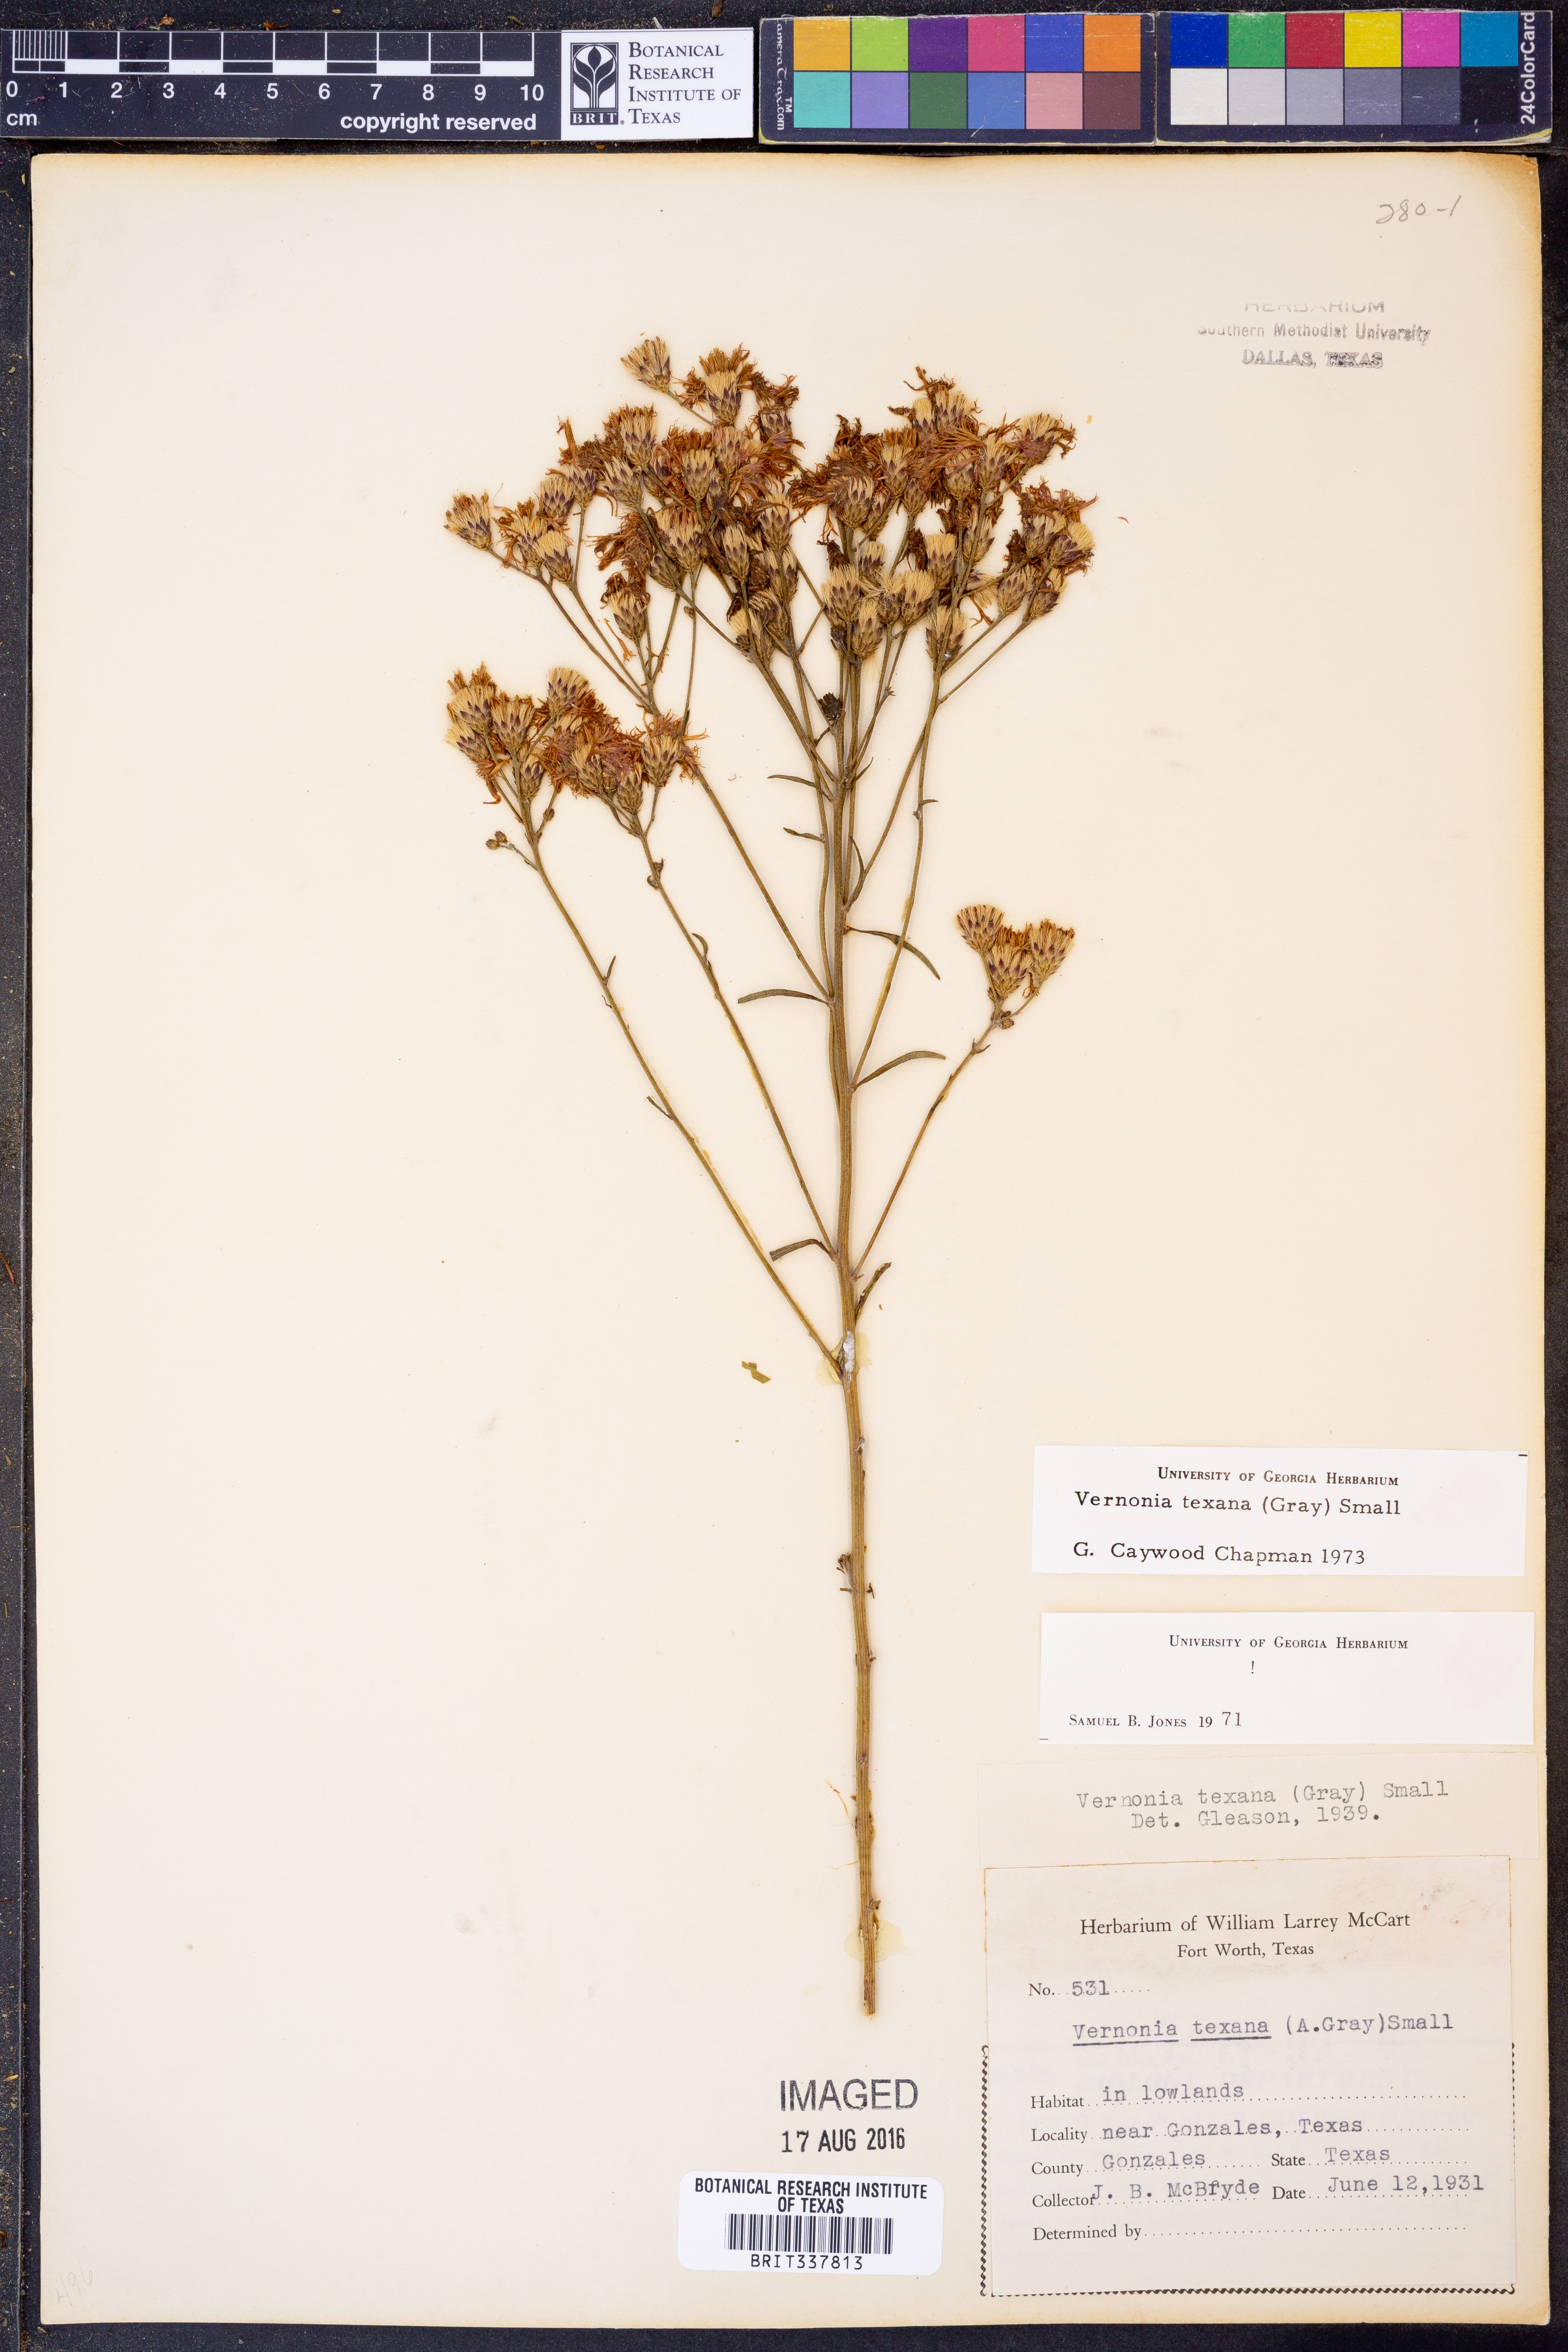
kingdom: Plantae
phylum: Tracheophyta
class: Magnoliopsida
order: Asterales
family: Asteraceae
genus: Vernonia
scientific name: Vernonia texana
